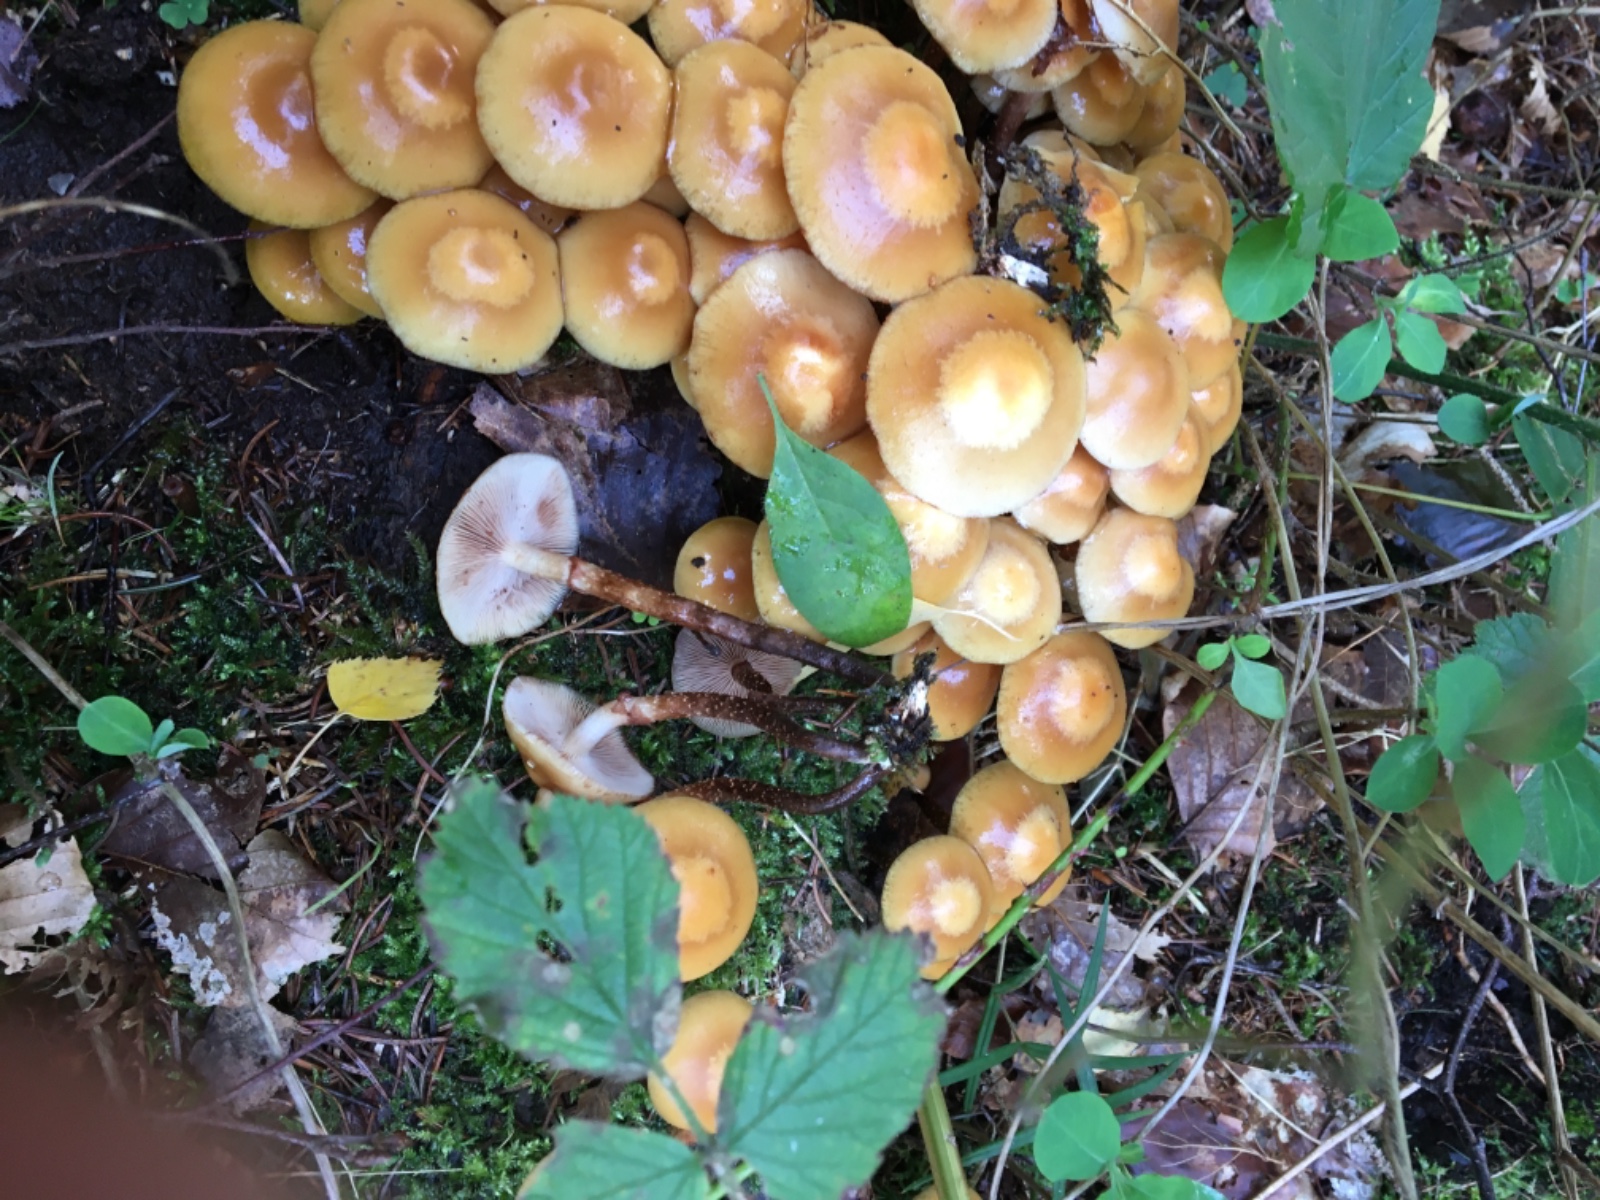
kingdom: Fungi
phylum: Basidiomycota
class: Agaricomycetes
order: Agaricales
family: Strophariaceae
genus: Kuehneromyces
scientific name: Kuehneromyces mutabilis
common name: foranderlig skælhat
